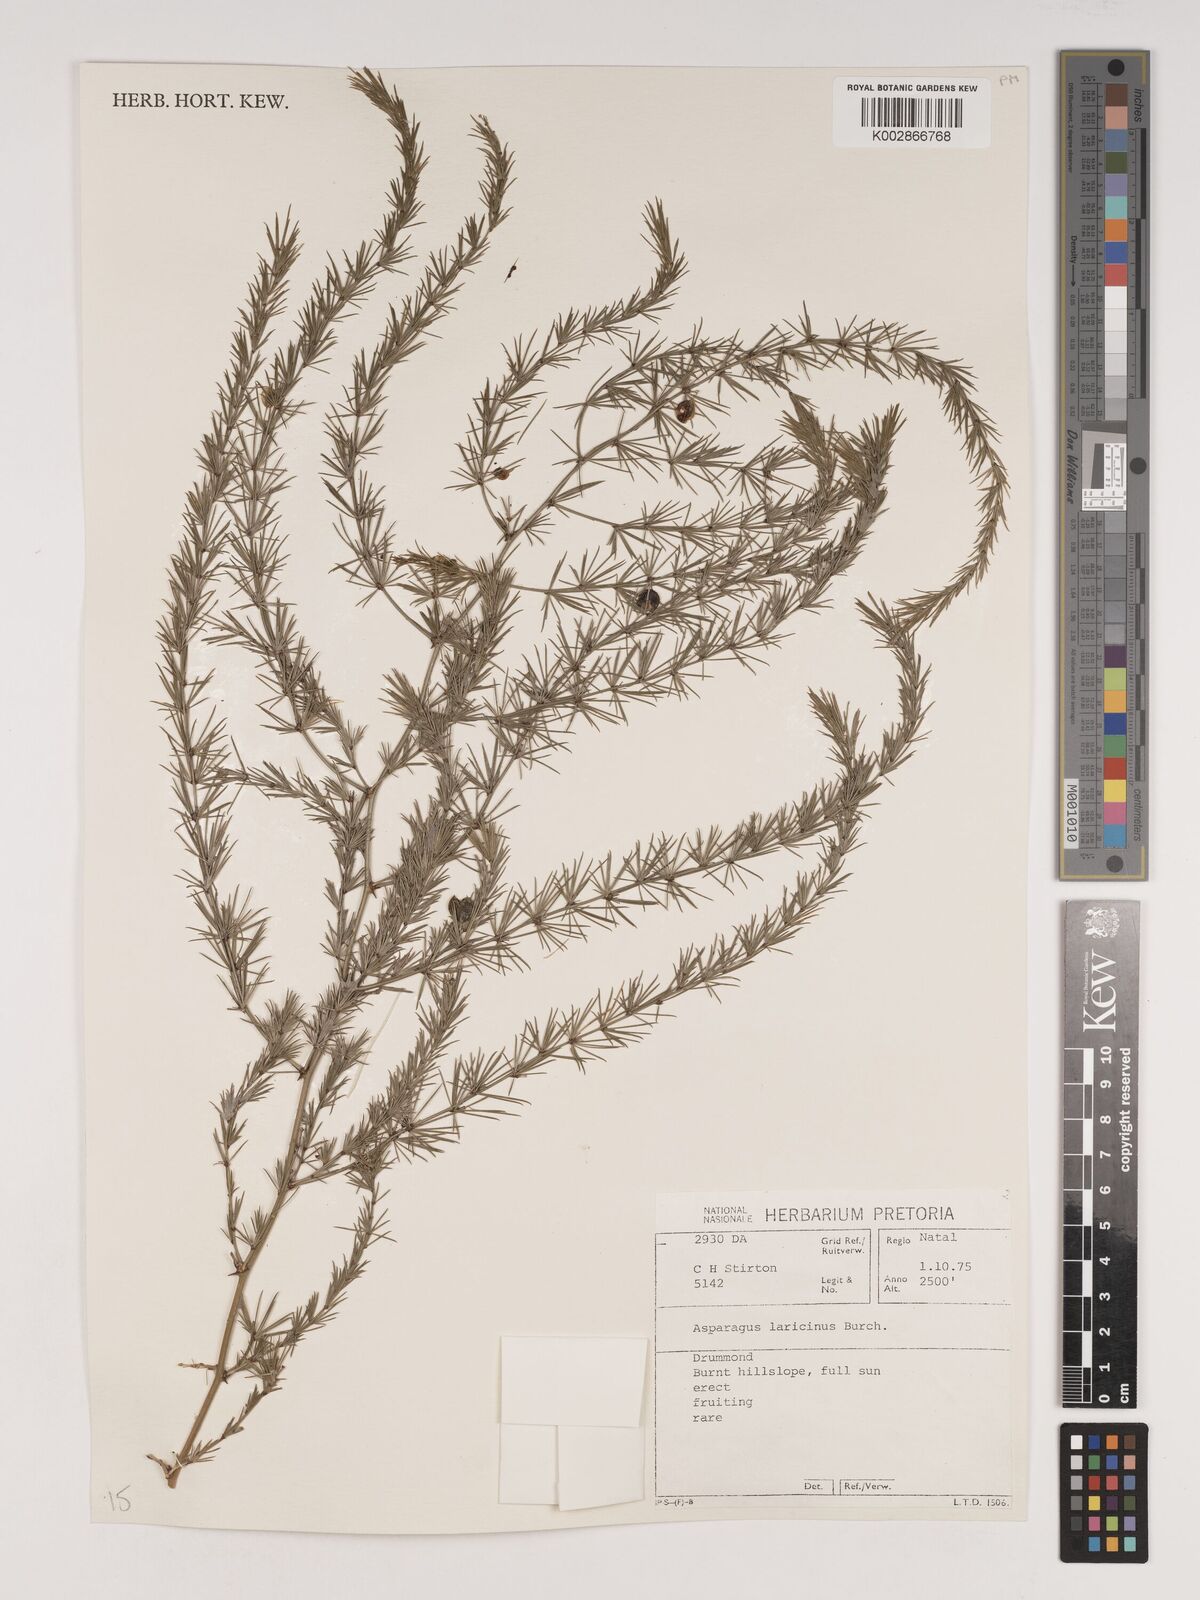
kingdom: Plantae
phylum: Tracheophyta
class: Liliopsida
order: Asparagales
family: Asparagaceae
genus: Asparagus
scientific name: Asparagus laricinus
